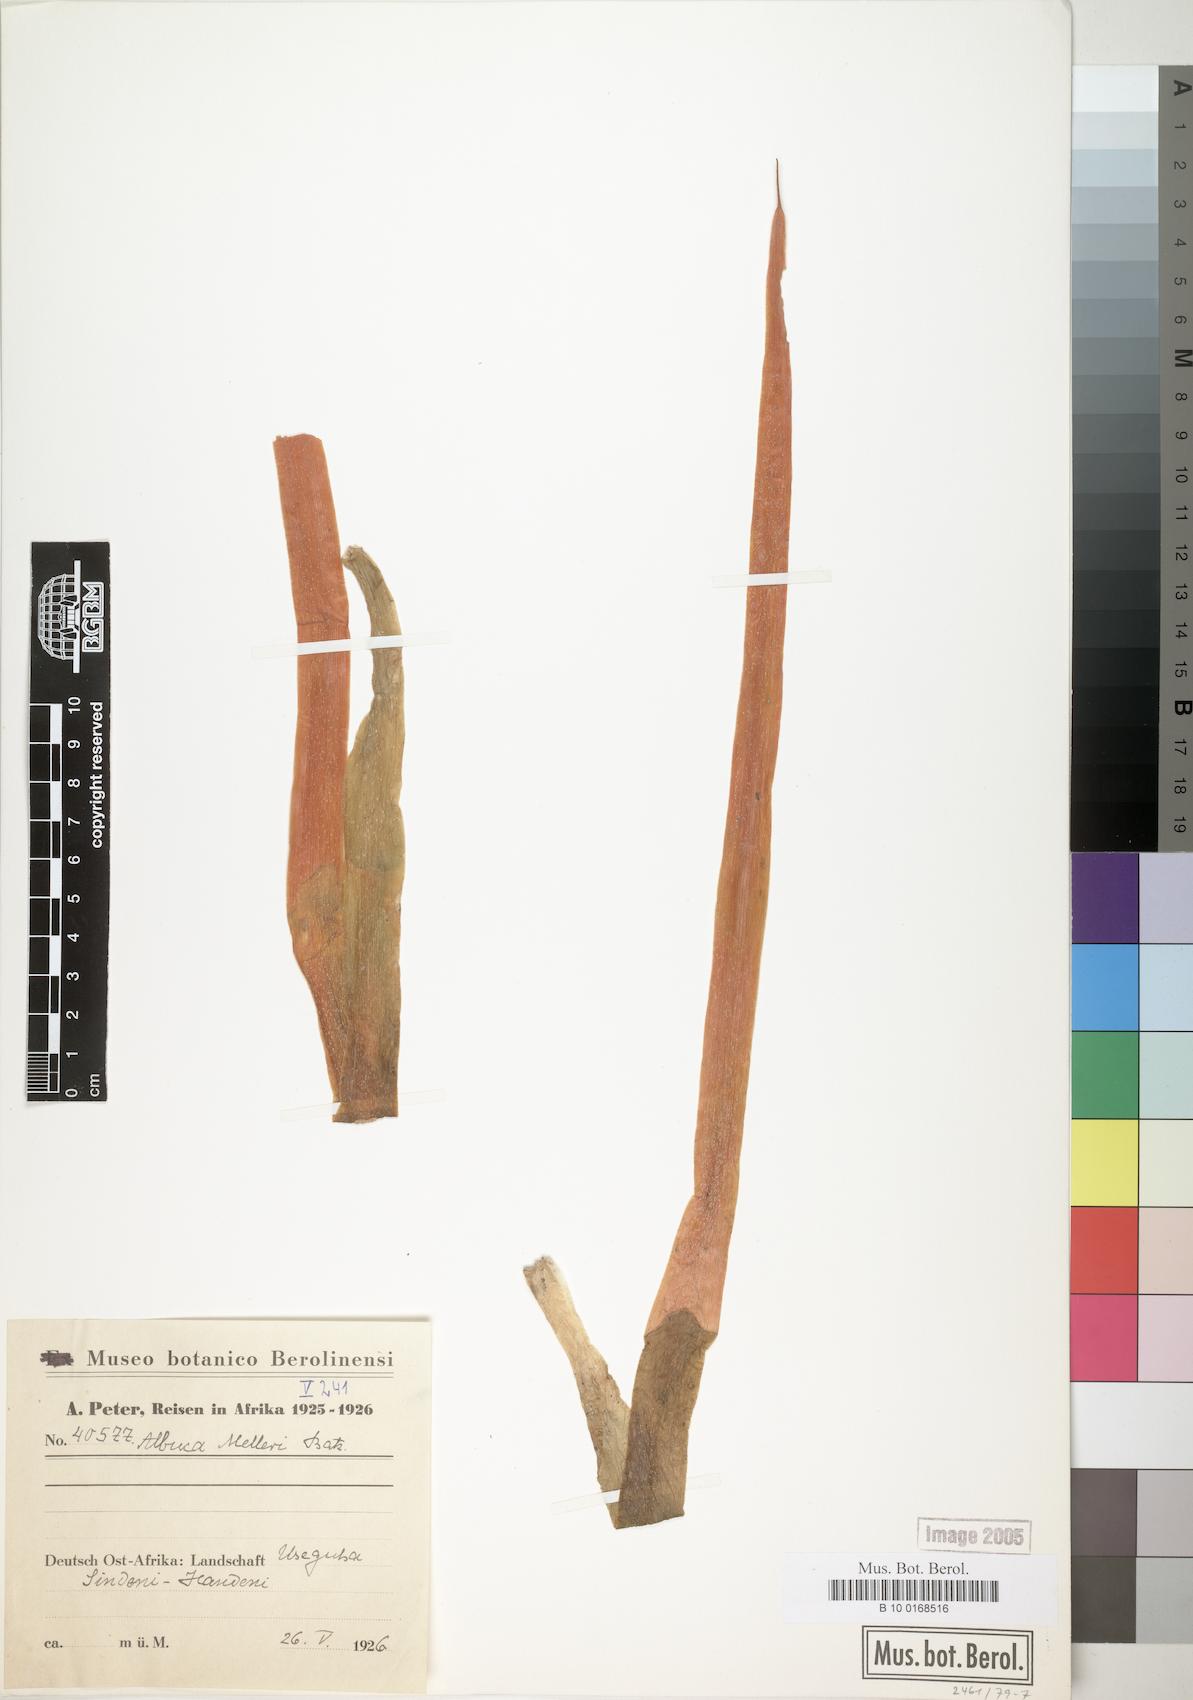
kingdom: Plantae
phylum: Tracheophyta
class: Liliopsida
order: Asparagales
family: Asparagaceae
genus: Albuca
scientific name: Albuca abyssinica
